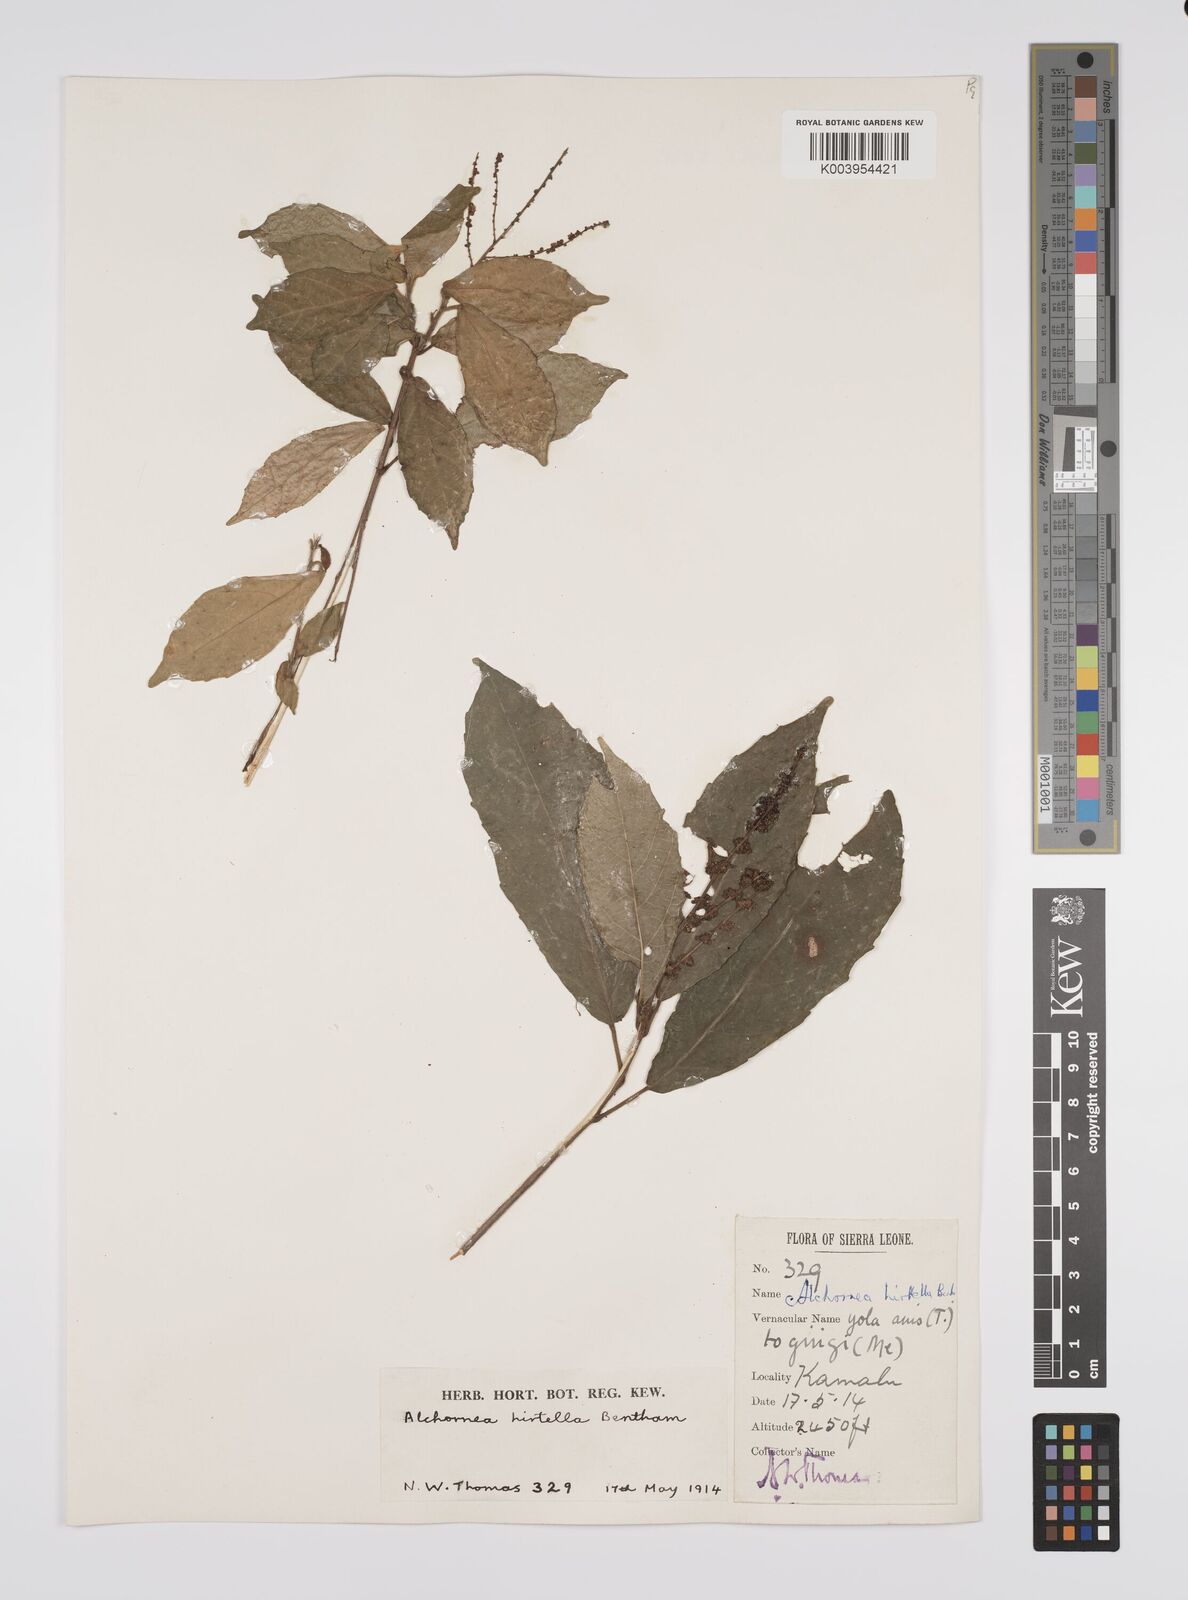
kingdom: Plantae
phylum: Tracheophyta
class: Magnoliopsida
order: Malpighiales
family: Euphorbiaceae
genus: Alchornea
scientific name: Alchornea hirtella
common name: Forest bead-string
